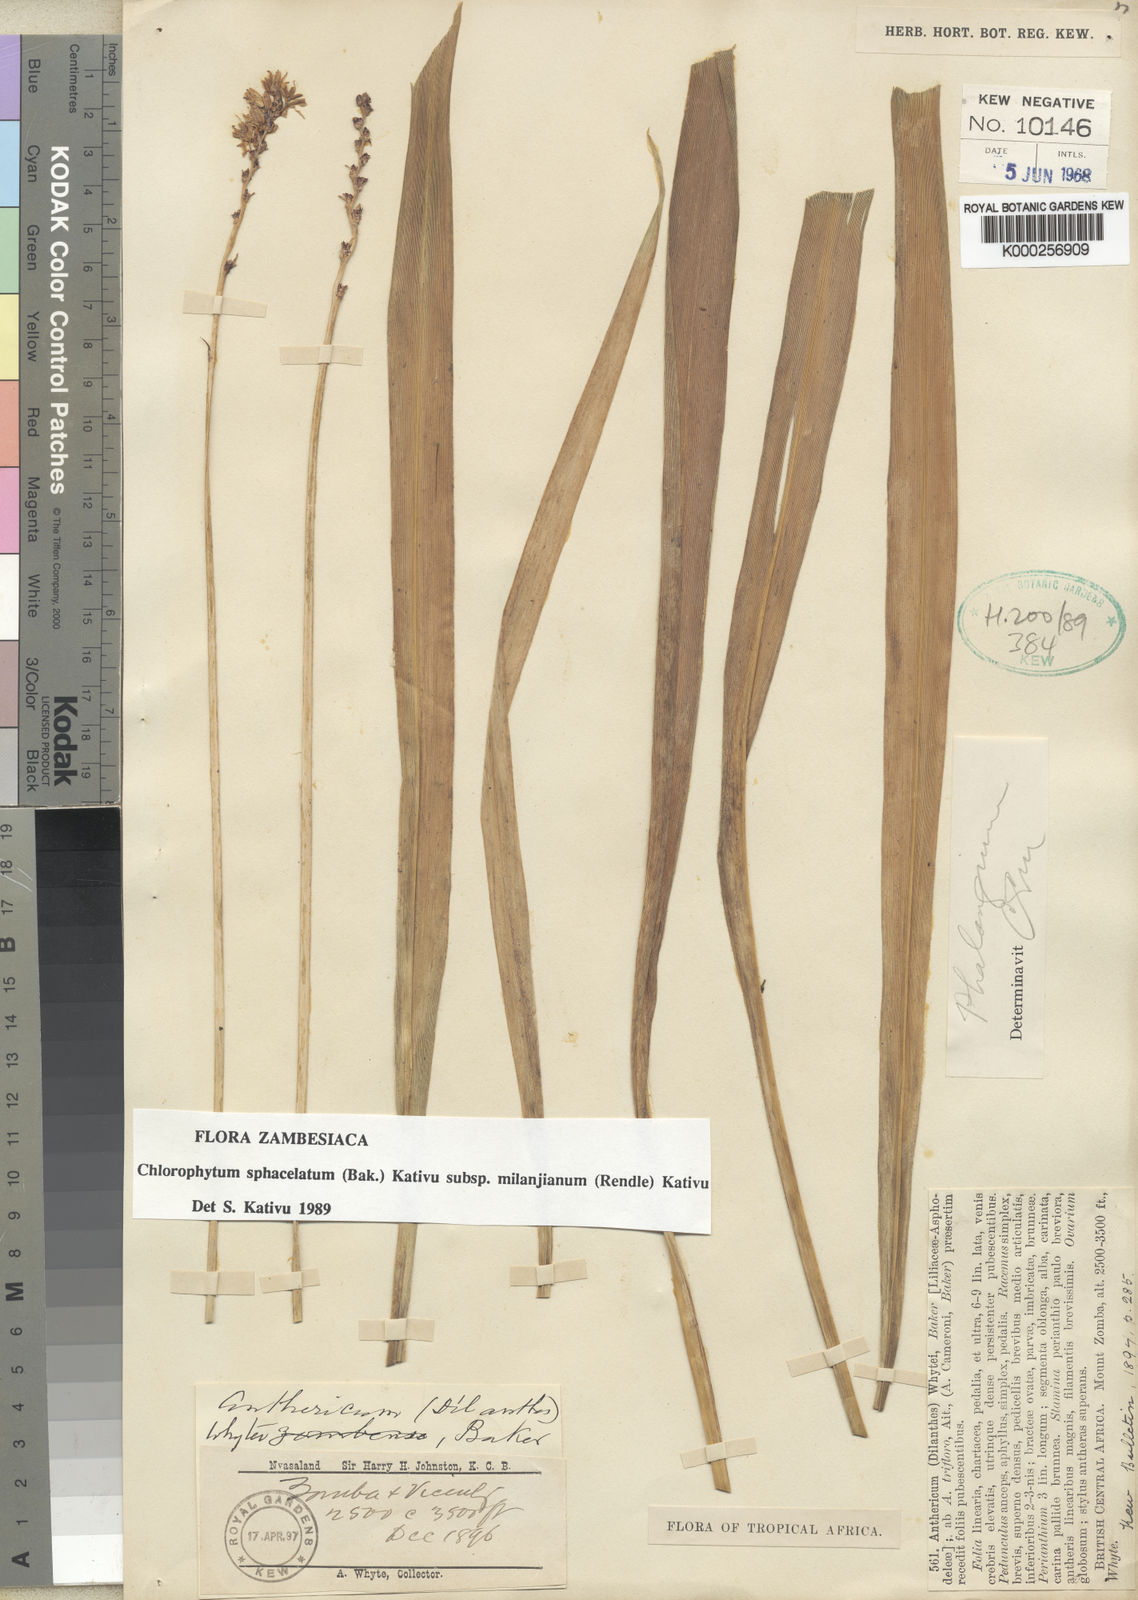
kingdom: Plantae
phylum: Tracheophyta
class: Liliopsida
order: Asparagales
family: Asparagaceae
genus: Chlorophytum
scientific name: Chlorophytum sphacelatum
